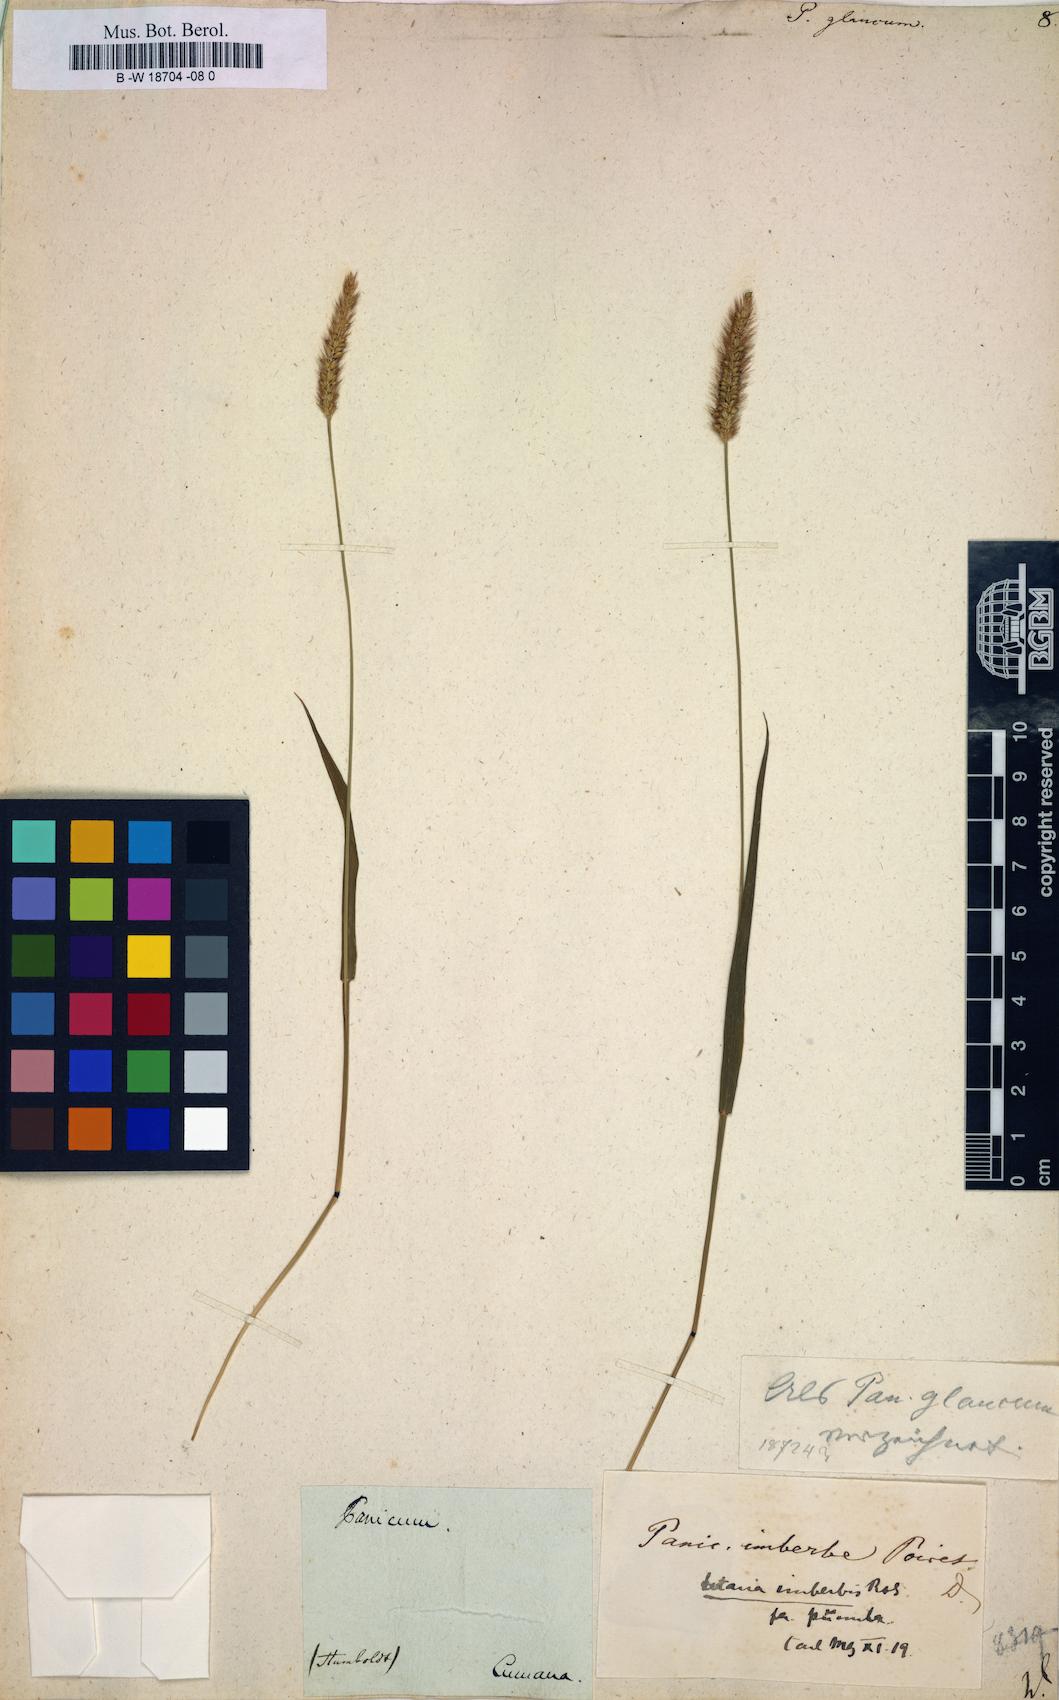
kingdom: Plantae
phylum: Tracheophyta
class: Liliopsida
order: Poales
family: Poaceae
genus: Panicum
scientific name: Panicum glaucum
